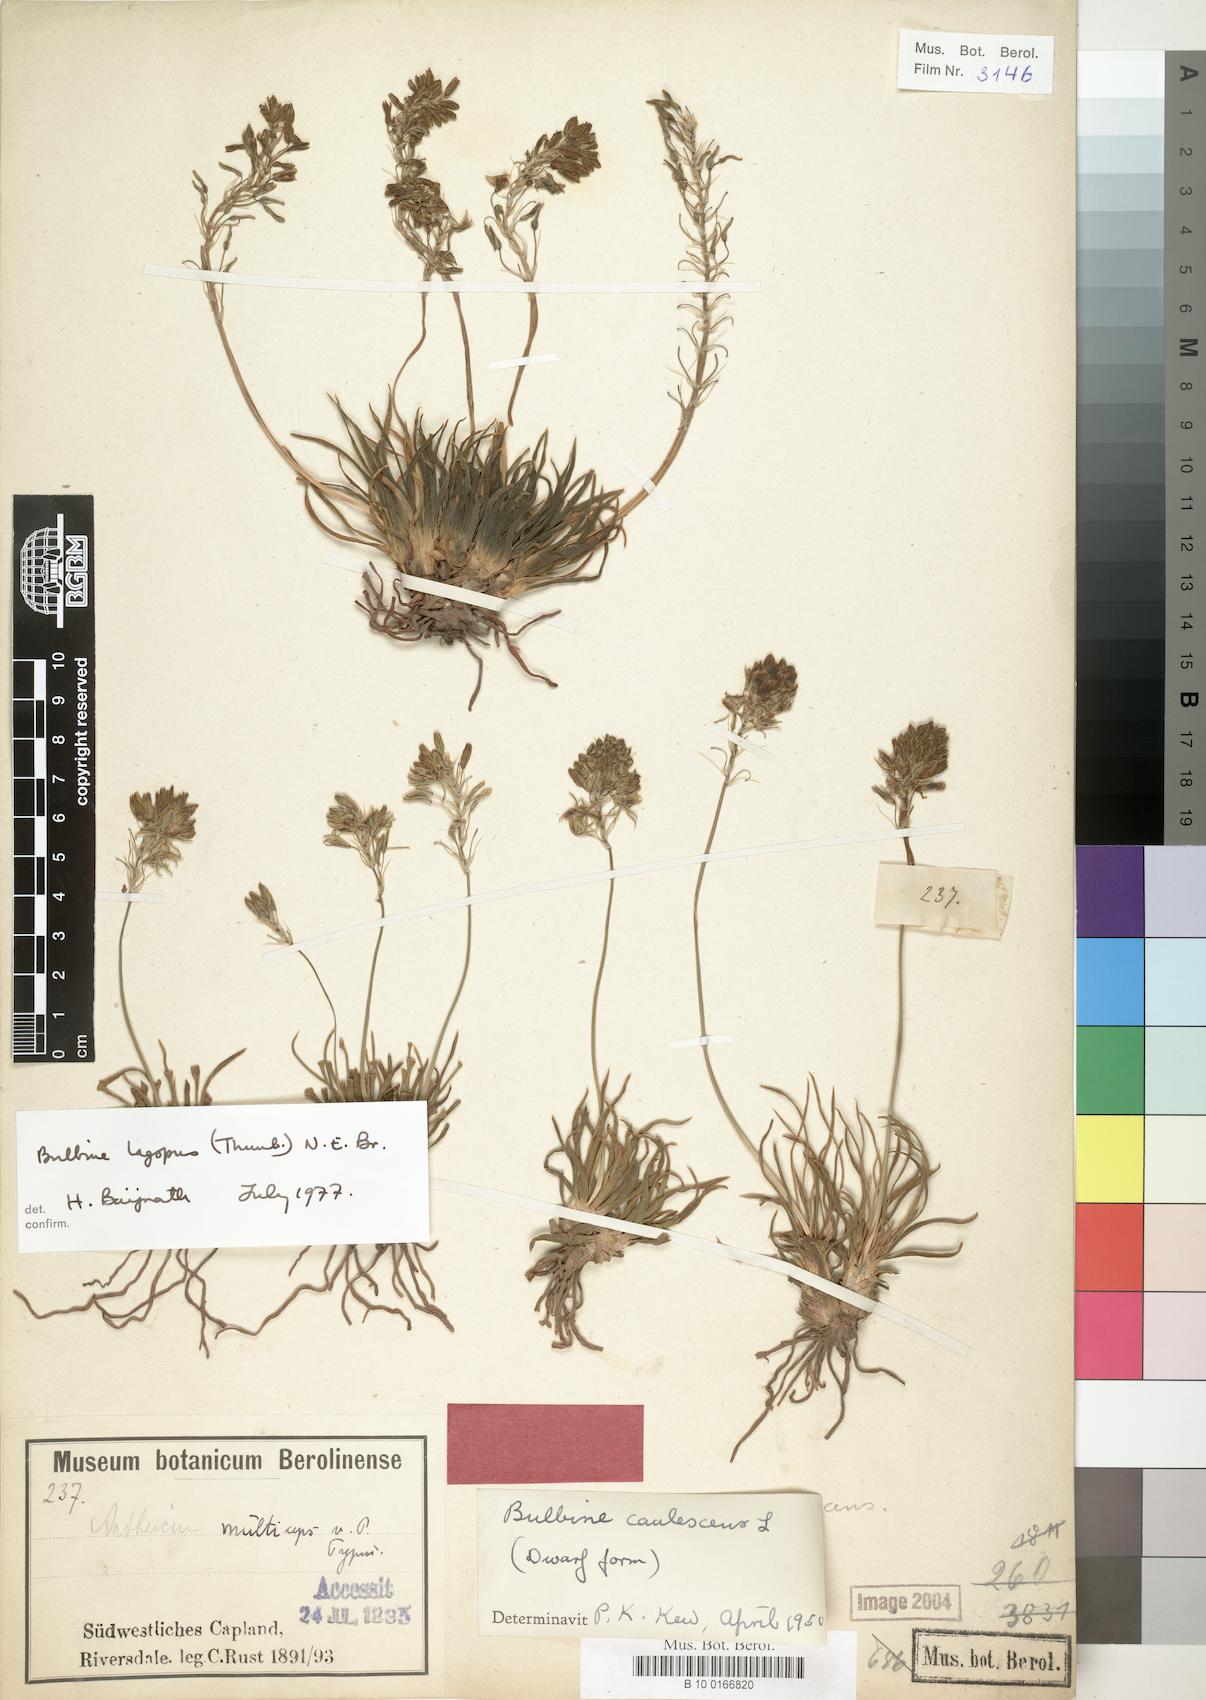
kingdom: Plantae
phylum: Tracheophyta
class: Liliopsida
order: Asparagales
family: Asphodelaceae
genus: Bulbine
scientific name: Bulbine lagopus
